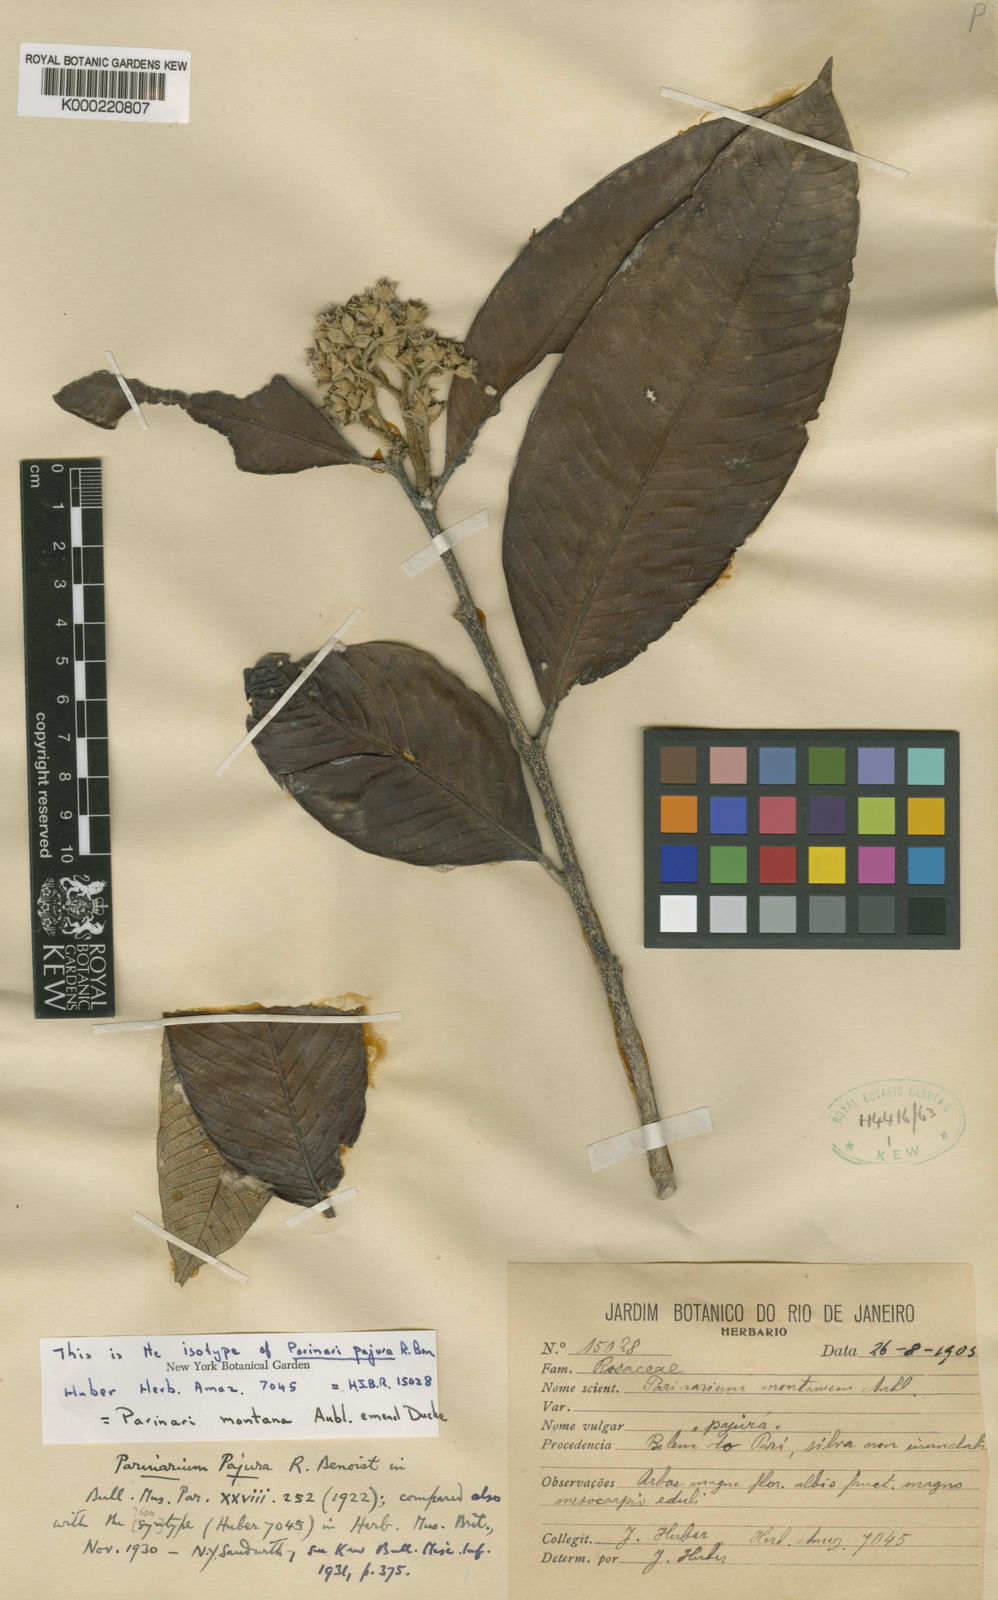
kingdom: Plantae
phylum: Tracheophyta
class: Magnoliopsida
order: Malpighiales
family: Chrysobalanaceae
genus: Parinari
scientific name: Parinari montana
